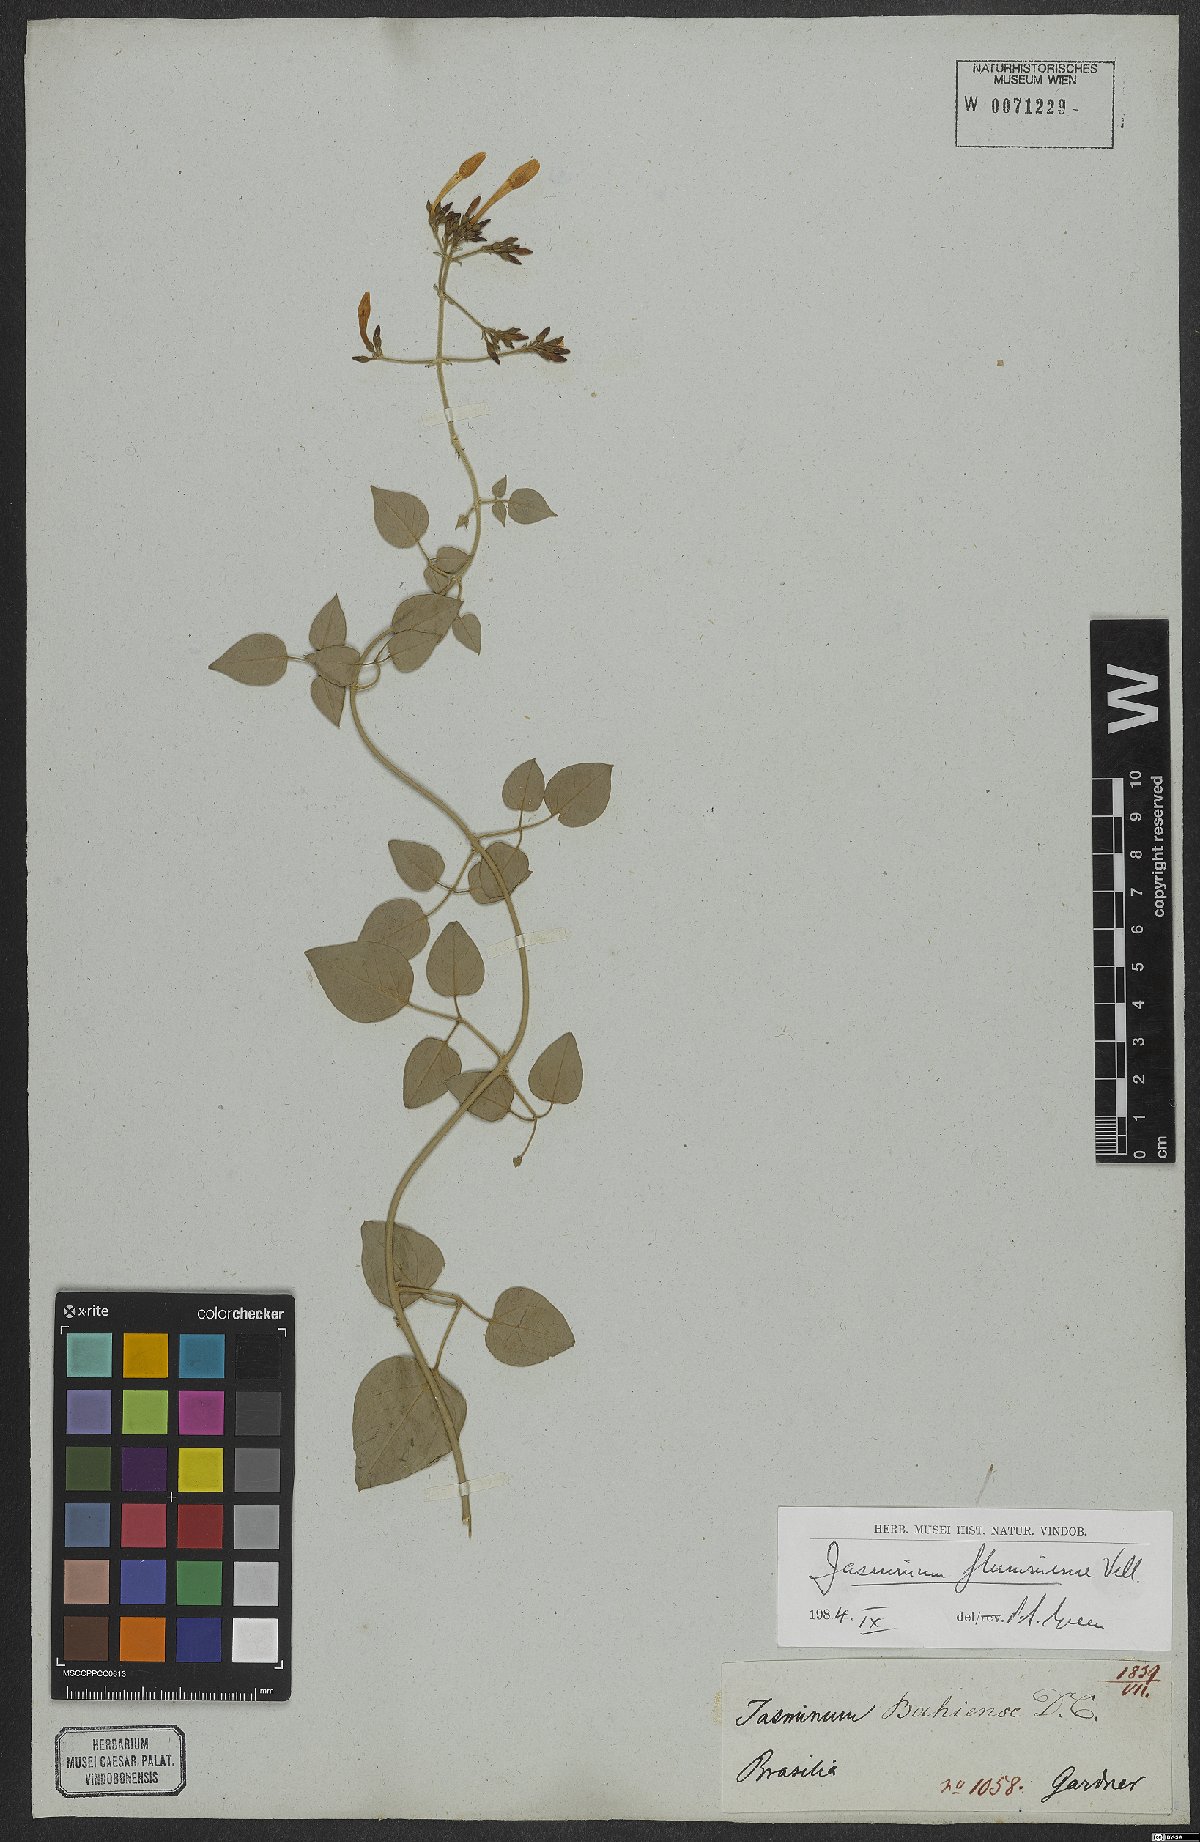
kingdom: Plantae
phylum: Tracheophyta
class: Magnoliopsida
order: Lamiales
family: Oleaceae
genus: Jasminum
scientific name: Jasminum fluminense
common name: Brazilian jasmine
